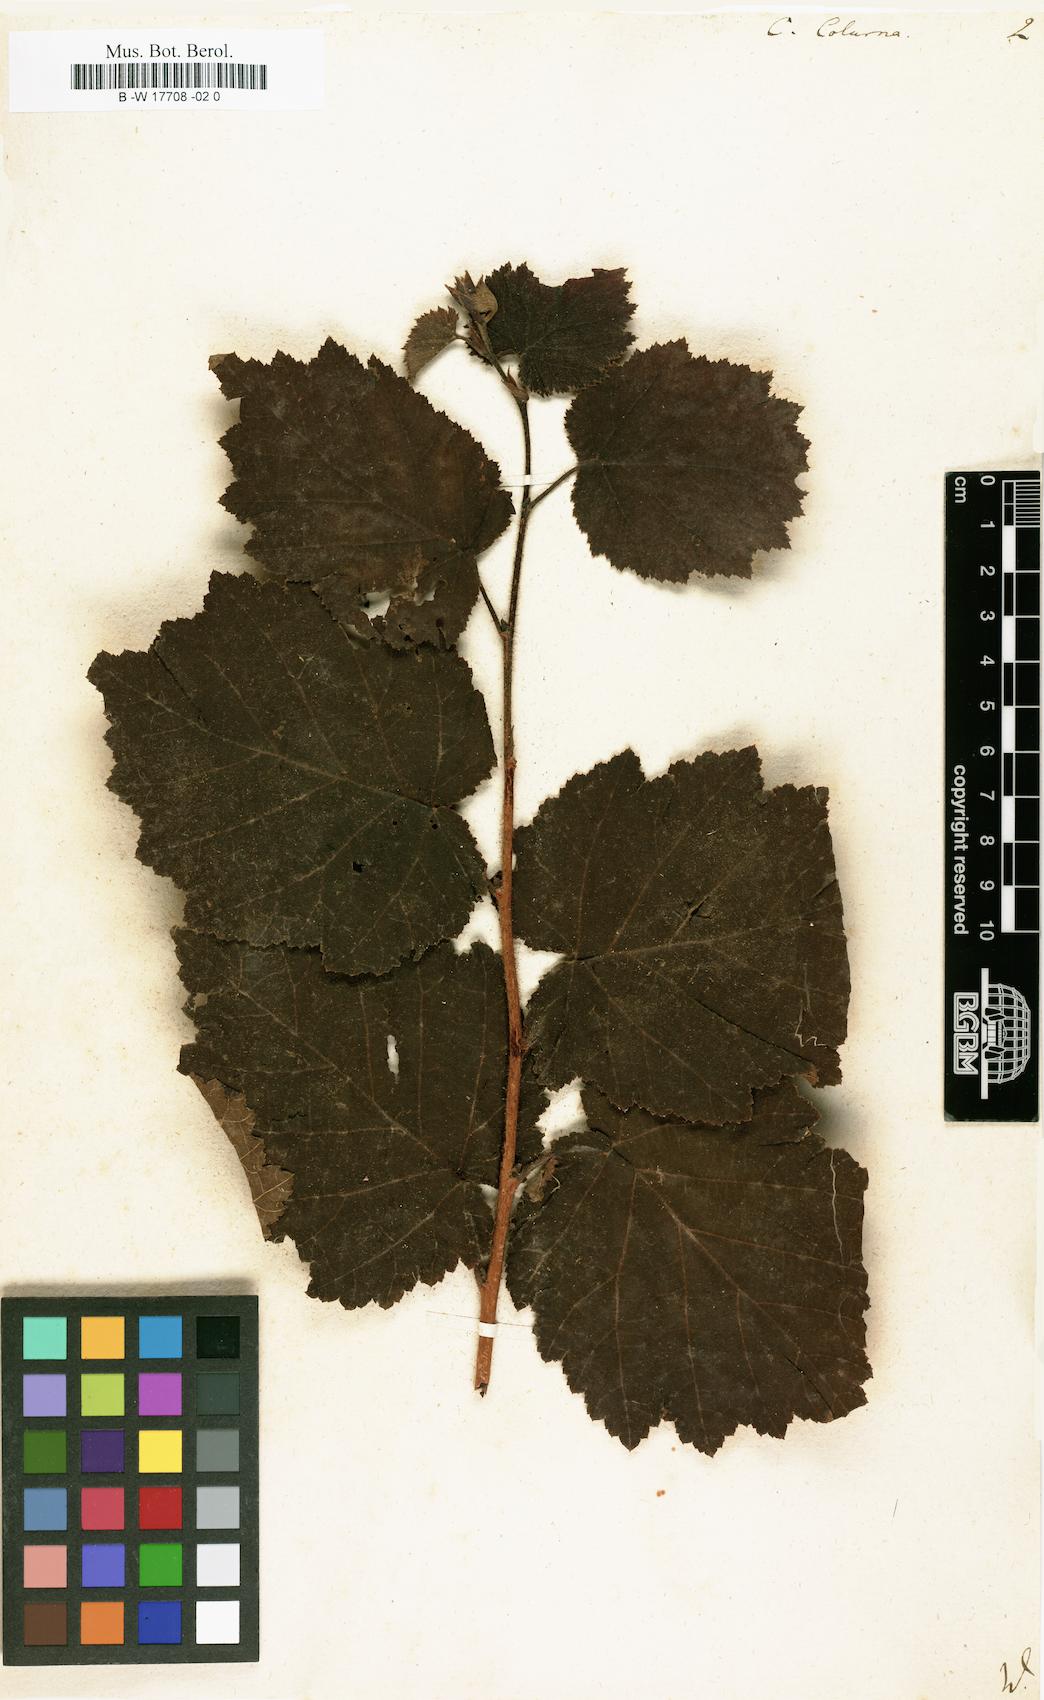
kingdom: Plantae
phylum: Tracheophyta
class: Magnoliopsida
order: Fagales
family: Betulaceae
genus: Corylus
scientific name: Corylus colurna
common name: Turkish hazel
